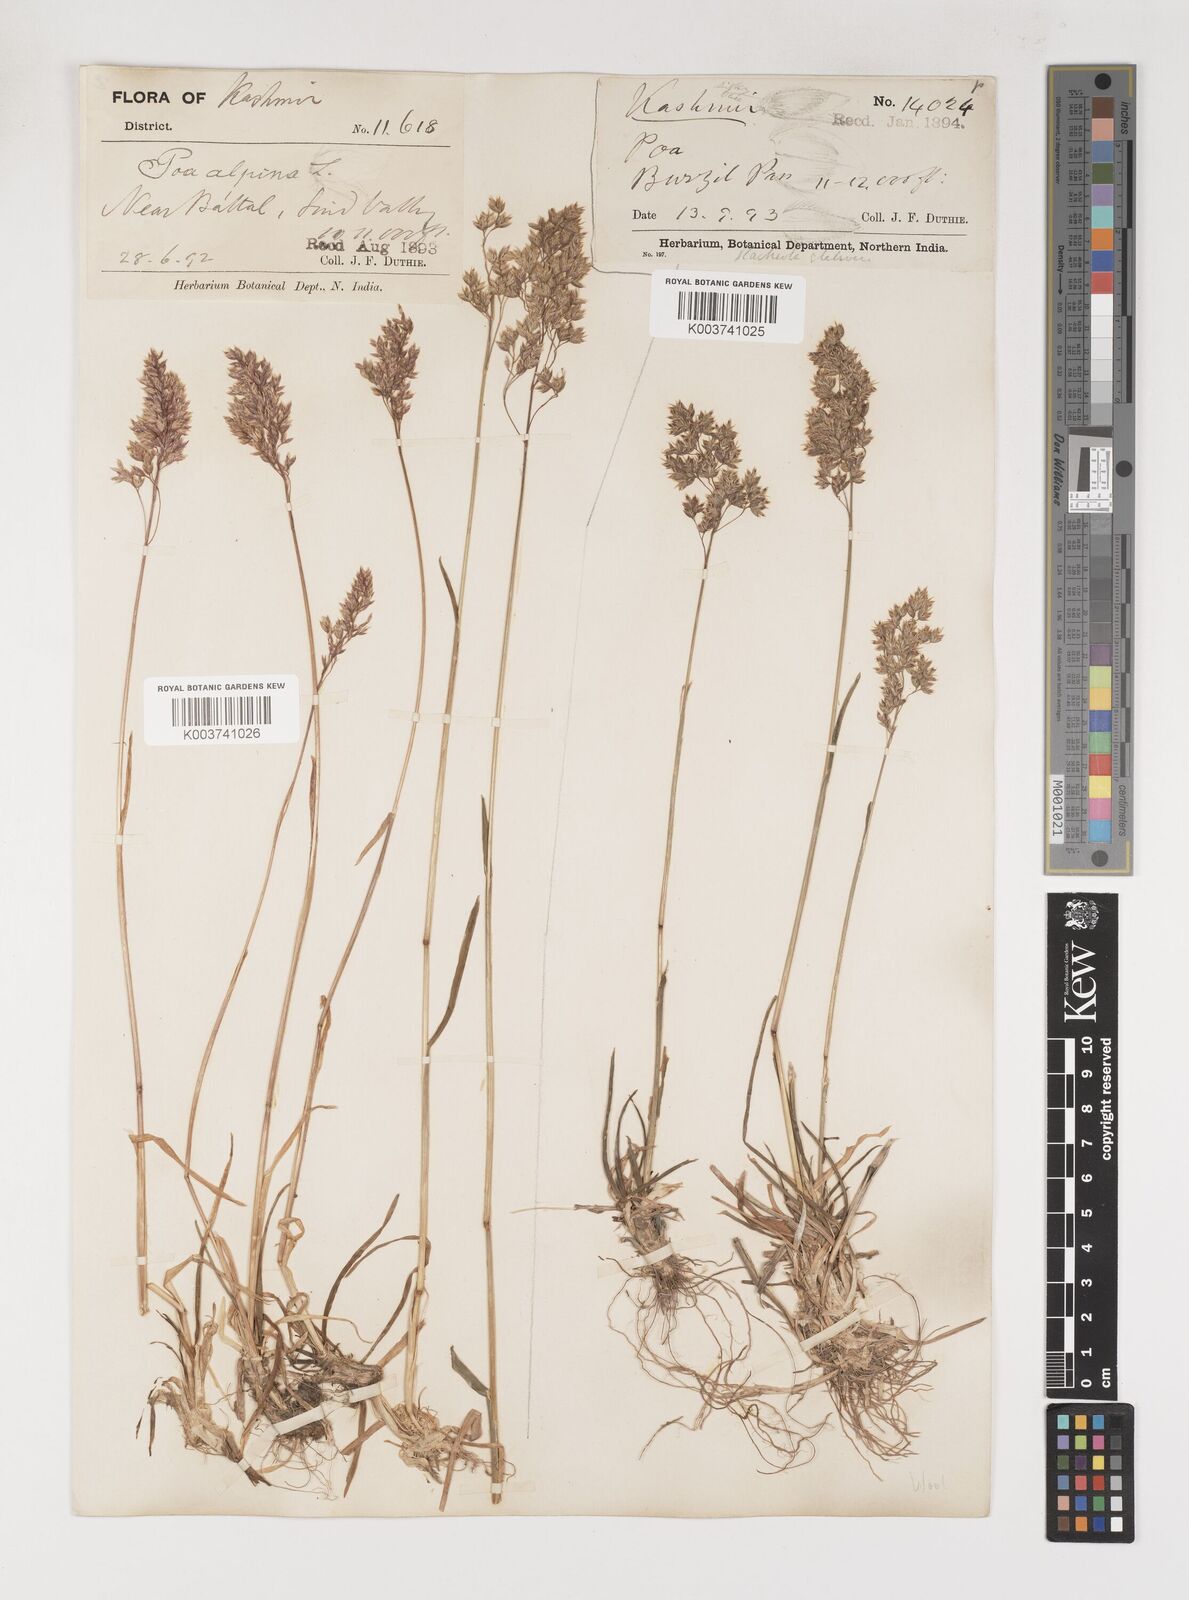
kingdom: Plantae
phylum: Tracheophyta
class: Liliopsida
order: Poales
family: Poaceae
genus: Poa
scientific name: Poa alpina
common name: Alpine bluegrass
